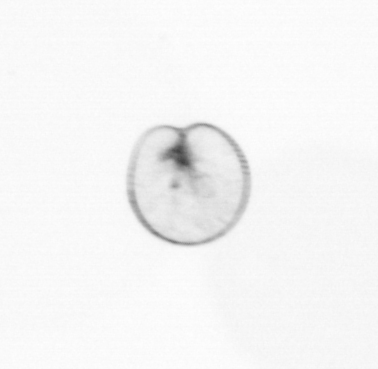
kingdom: Chromista
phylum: Myzozoa
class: Dinophyceae
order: Noctilucales
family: Noctilucaceae
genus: Noctiluca
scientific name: Noctiluca scintillans
